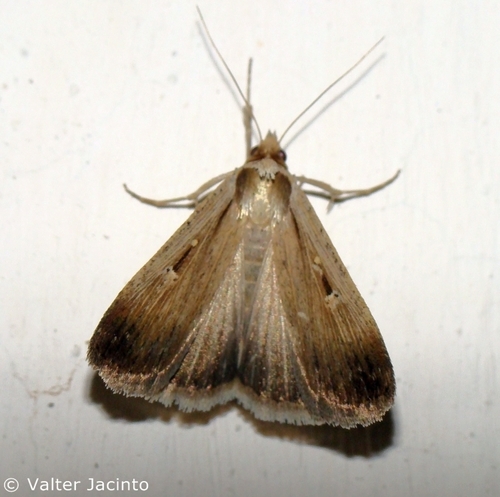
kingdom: Animalia
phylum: Arthropoda
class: Insecta
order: Lepidoptera
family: Noctuidae
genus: Tathorhynchus
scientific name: Tathorhynchus exsiccata
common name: Levant blackneck moth
